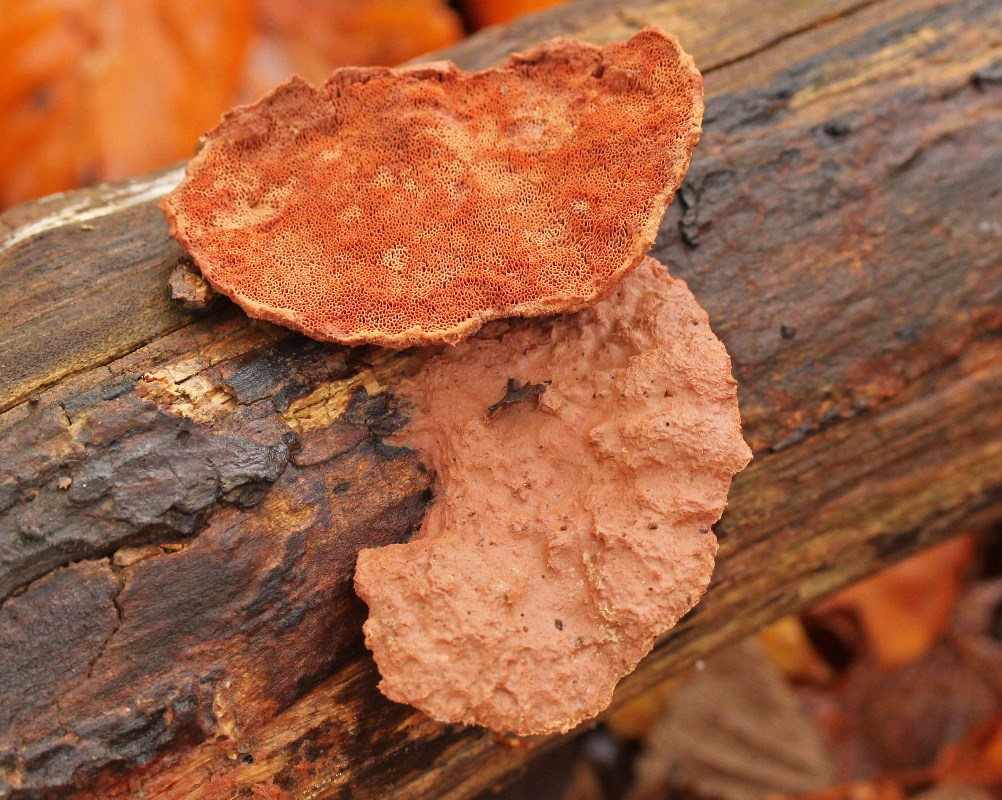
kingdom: Fungi
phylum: Basidiomycota
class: Agaricomycetes
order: Polyporales
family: Phanerochaetaceae
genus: Hapalopilus
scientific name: Hapalopilus rutilans
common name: rødlig okkerporesvamp
